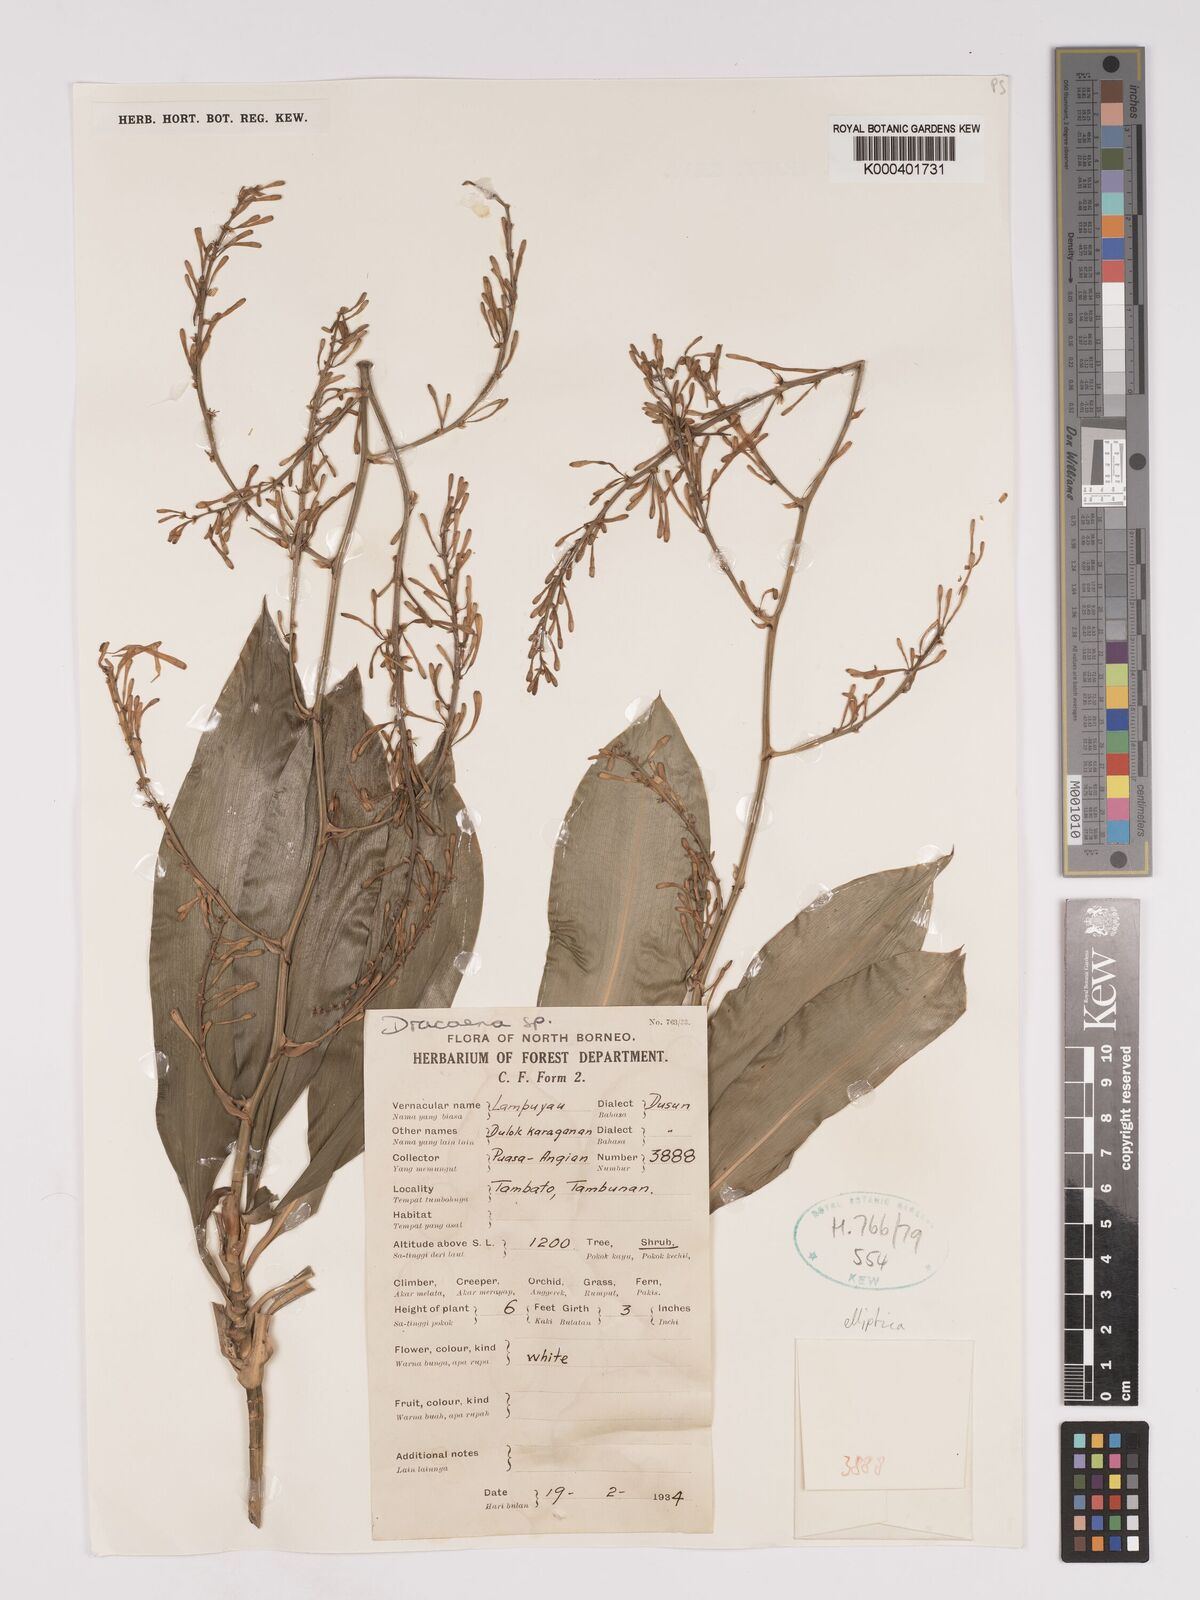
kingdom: Plantae
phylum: Tracheophyta
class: Liliopsida
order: Asparagales
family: Asparagaceae
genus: Dracaena
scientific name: Dracaena elliptica
